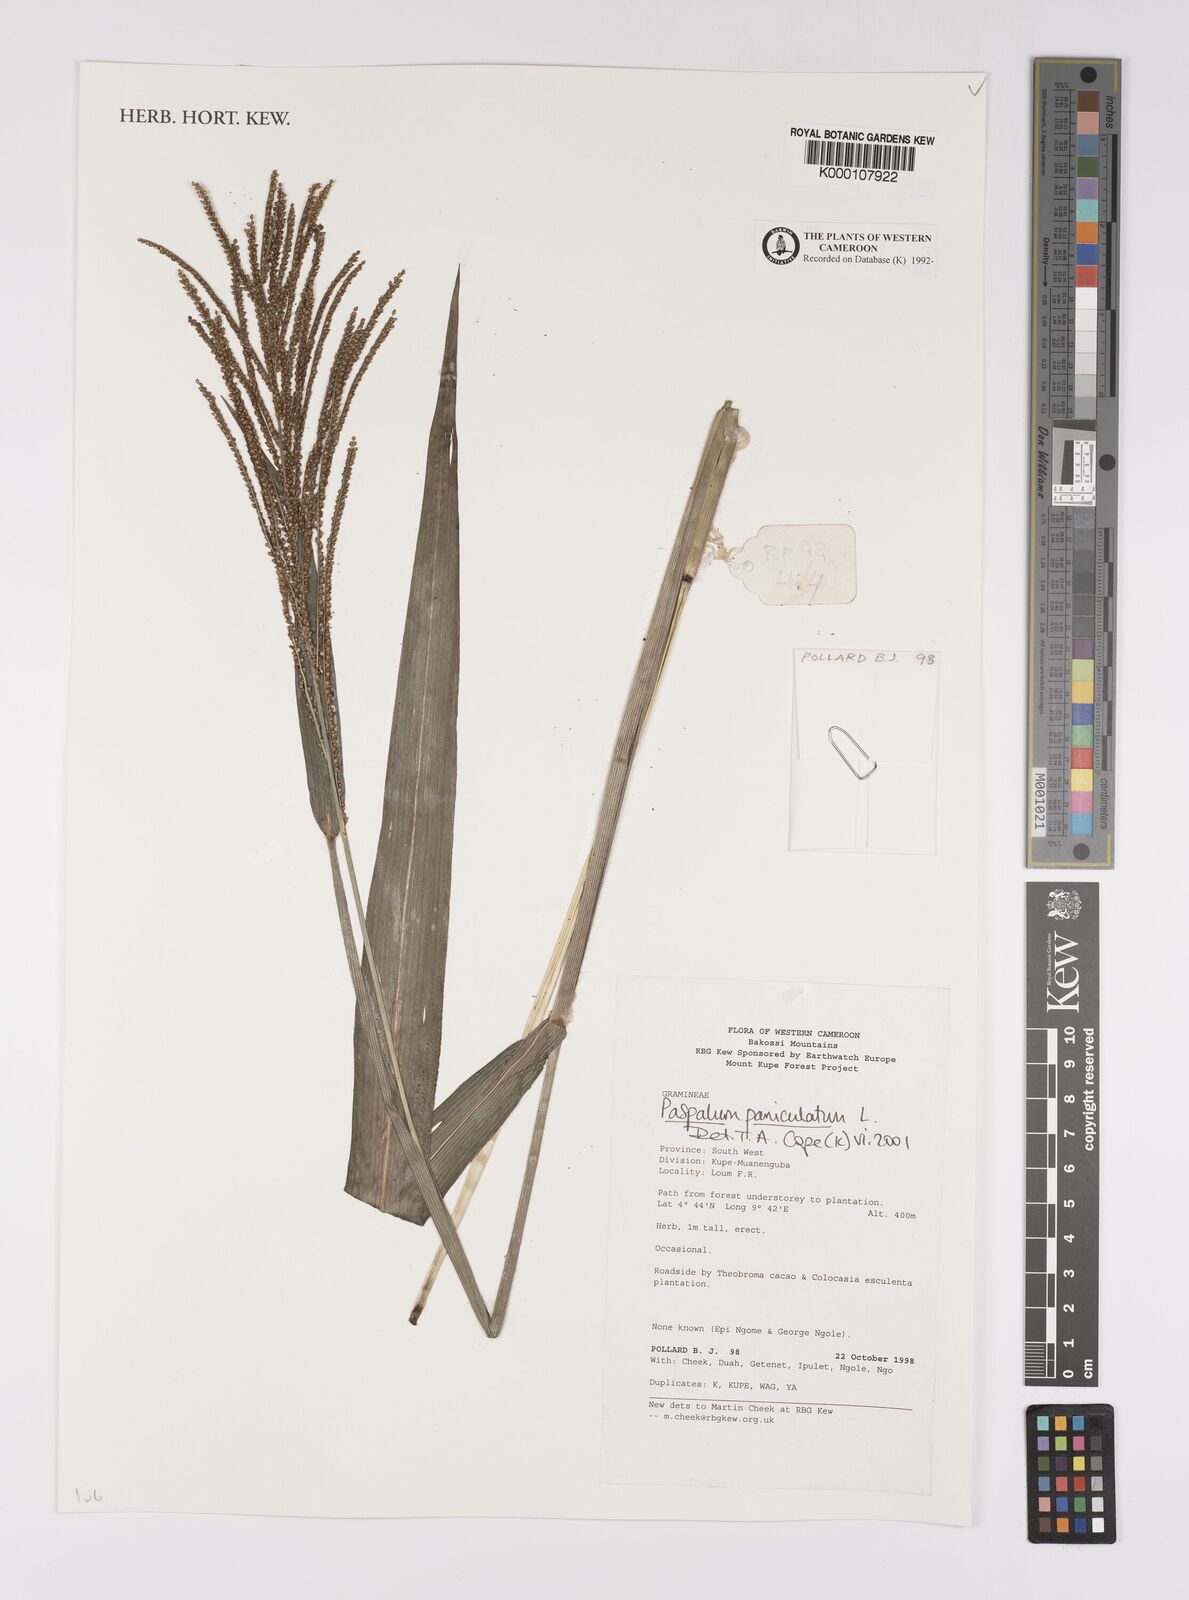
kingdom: Plantae
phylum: Tracheophyta
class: Liliopsida
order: Poales
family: Poaceae
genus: Paspalum
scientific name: Paspalum paniculatum
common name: Arrocillo
